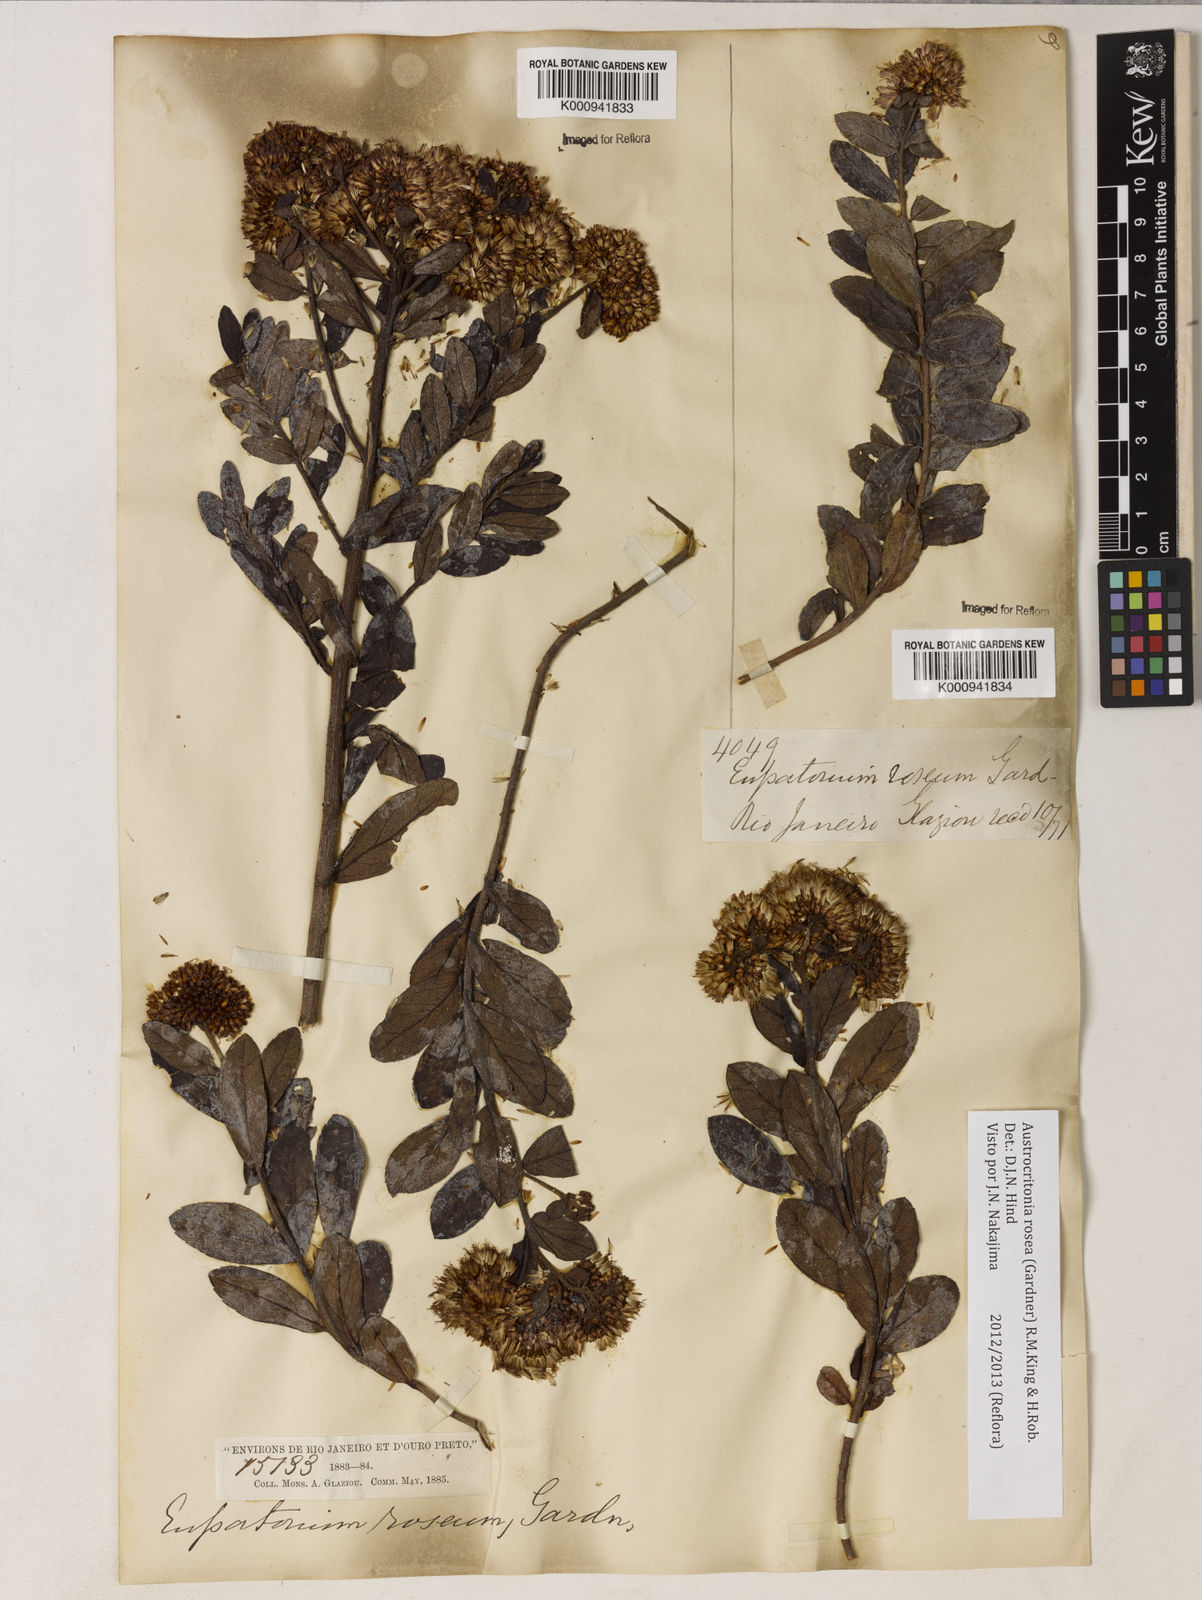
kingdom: Plantae
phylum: Tracheophyta
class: Magnoliopsida
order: Asterales
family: Asteraceae
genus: Austrocritonia
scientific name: Austrocritonia rosea
